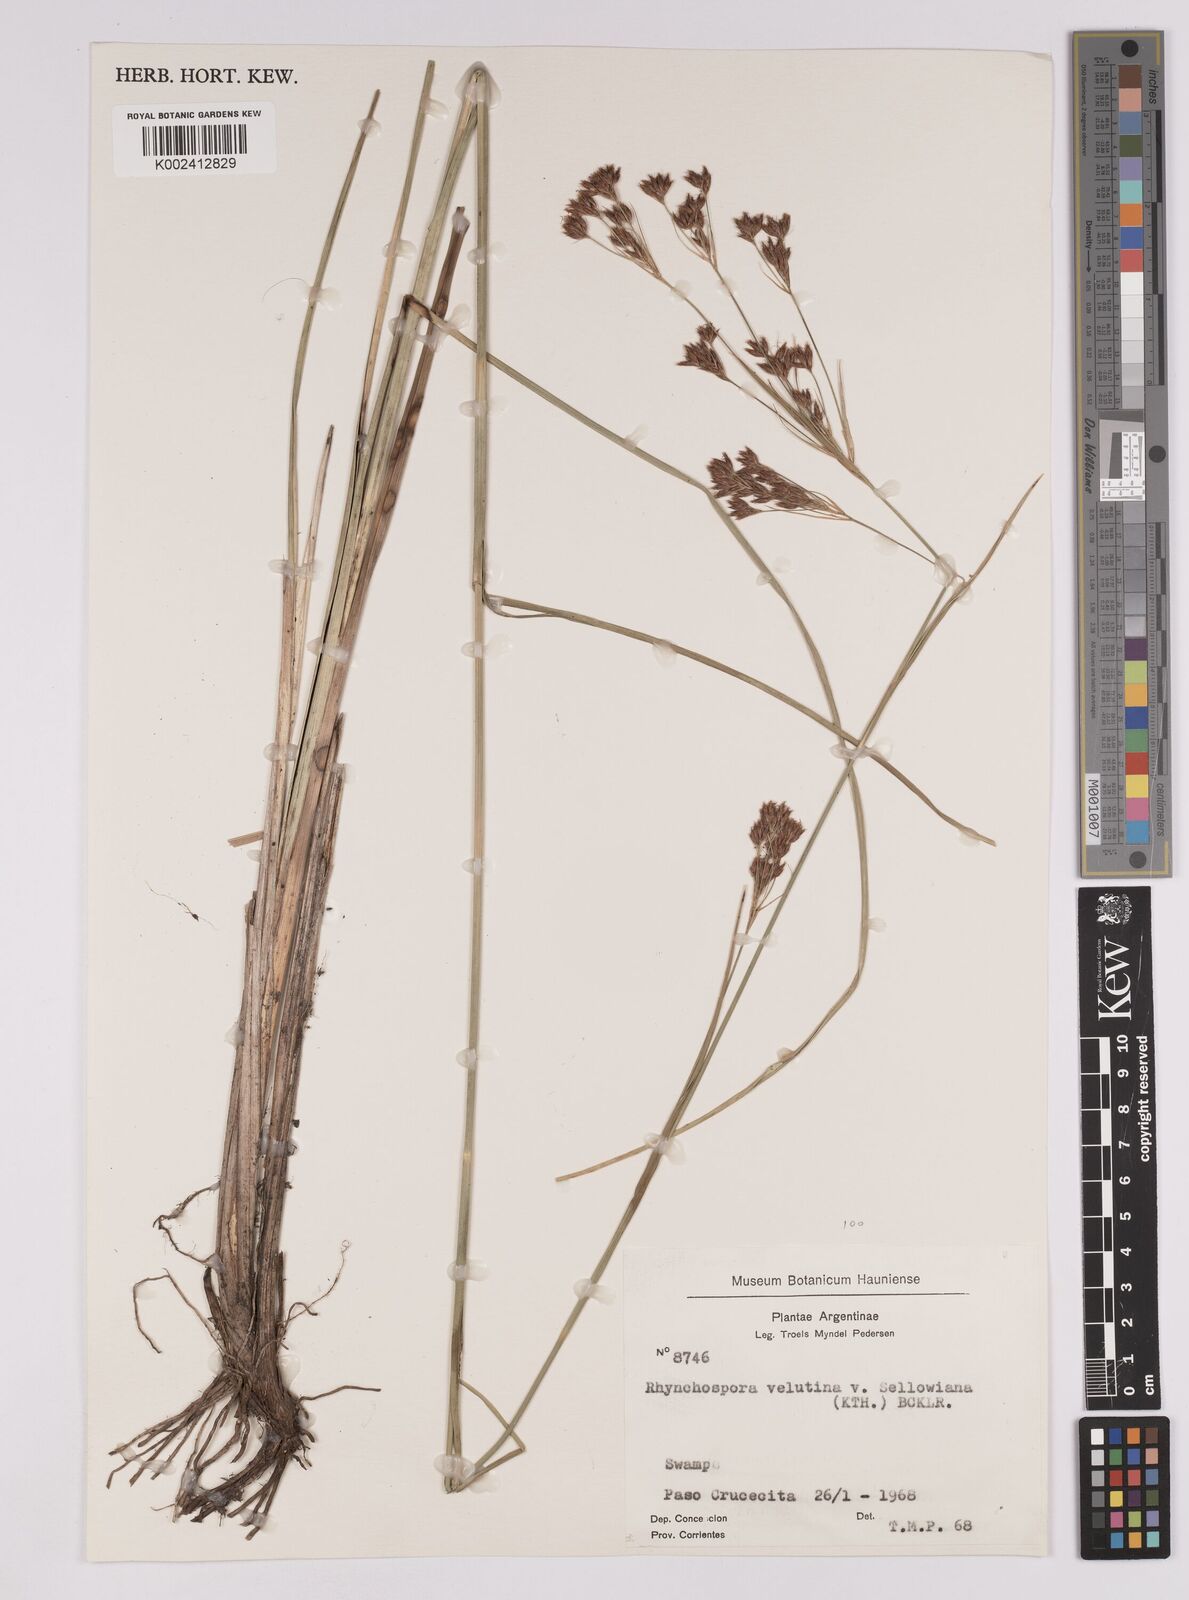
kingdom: Plantae
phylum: Tracheophyta
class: Liliopsida
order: Poales
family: Cyperaceae
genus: Rhynchospora
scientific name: Rhynchospora robusta
